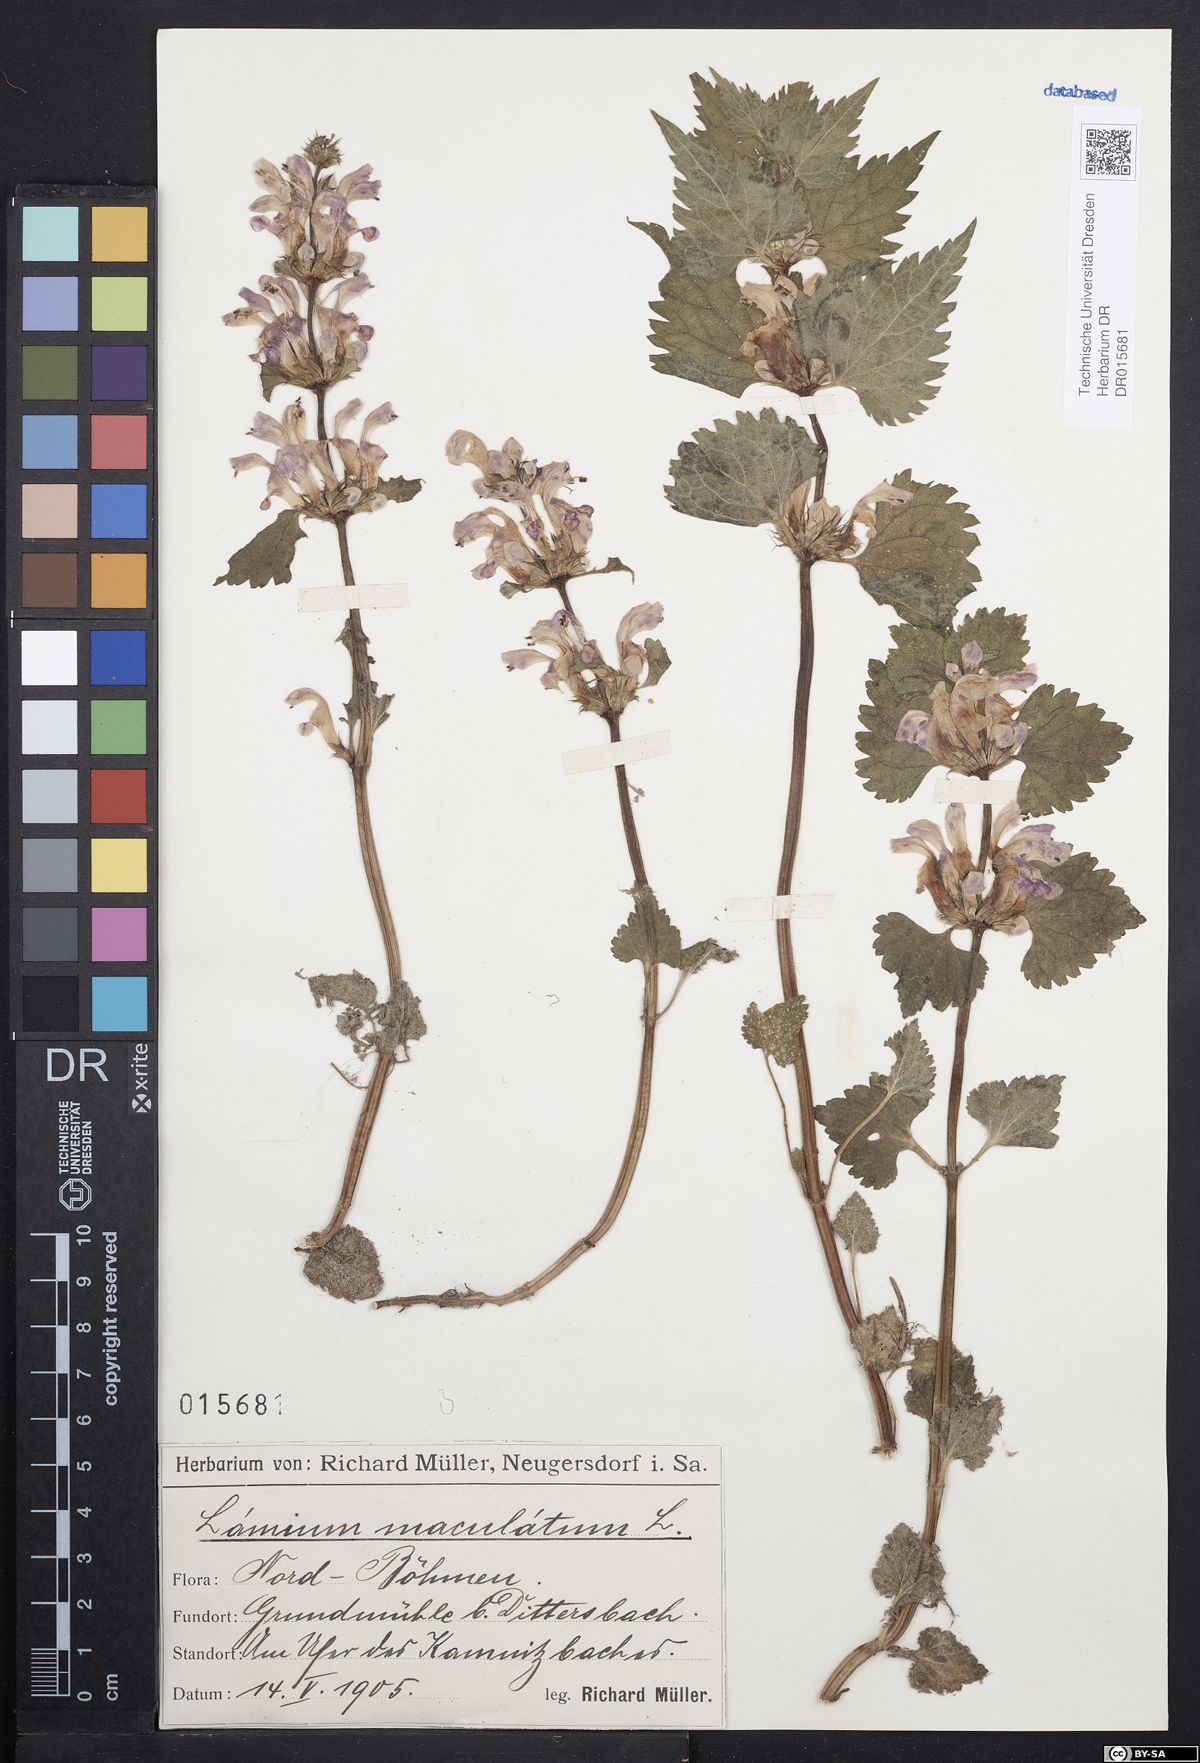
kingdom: Plantae
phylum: Tracheophyta
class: Magnoliopsida
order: Lamiales
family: Lamiaceae
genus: Lamium
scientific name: Lamium maculatum
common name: Spotted dead-nettle
